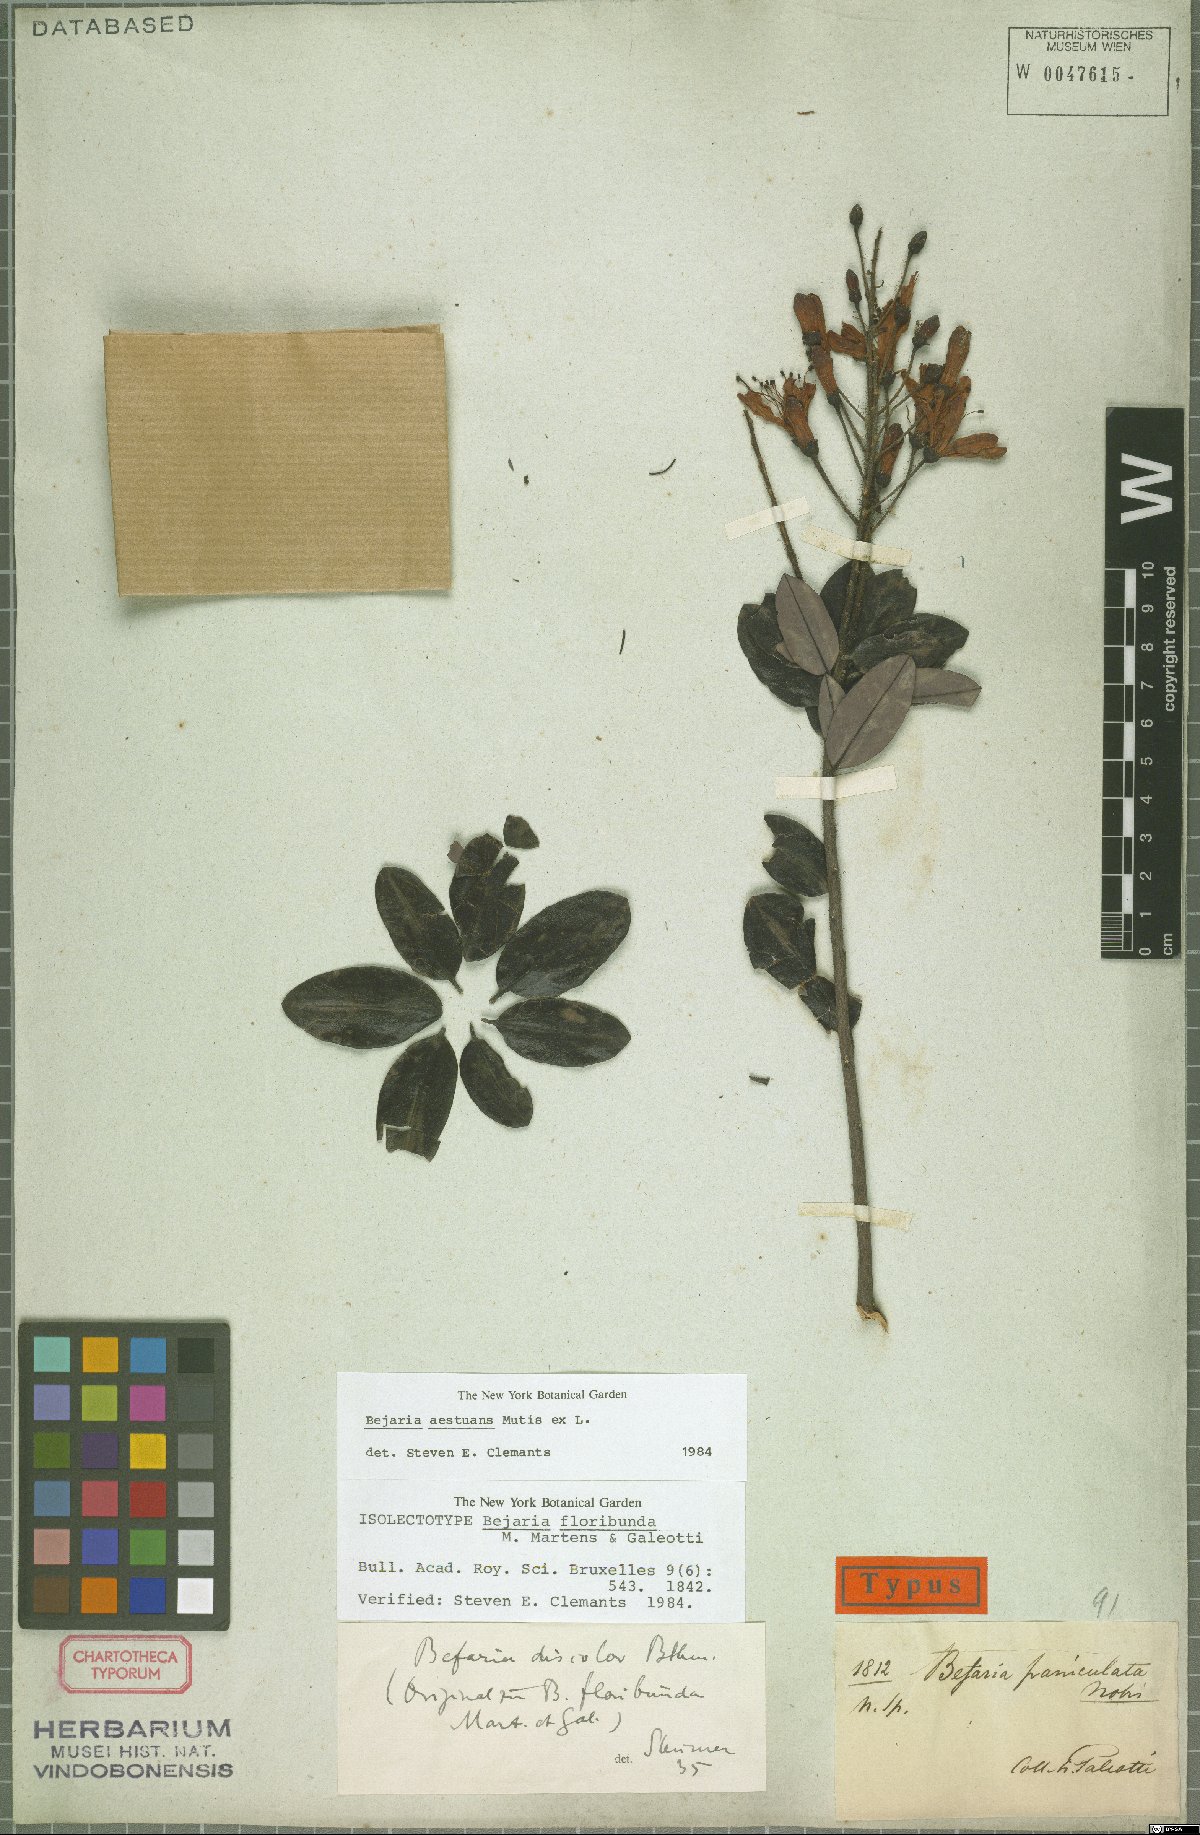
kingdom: Plantae
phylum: Tracheophyta
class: Magnoliopsida
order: Ericales
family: Ericaceae
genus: Bejaria
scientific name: Bejaria aestuans
